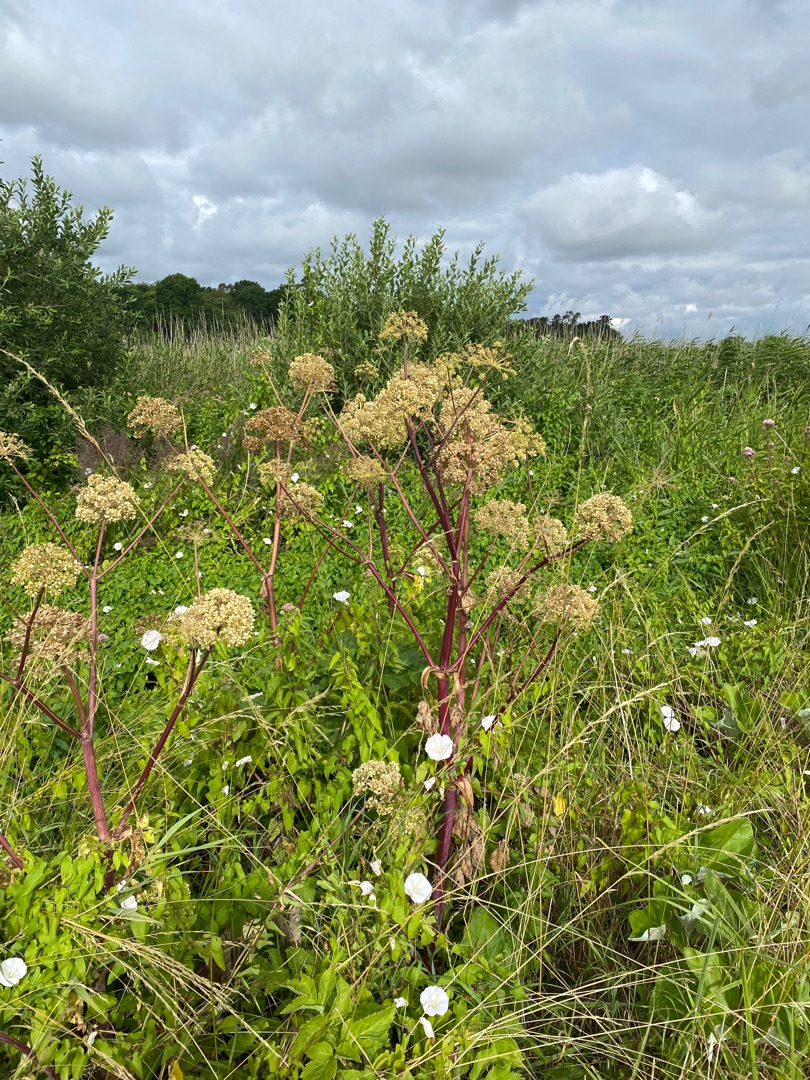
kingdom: Plantae
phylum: Tracheophyta
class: Magnoliopsida
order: Apiales
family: Apiaceae
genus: Angelica
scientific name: Angelica archangelica
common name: Kvan
